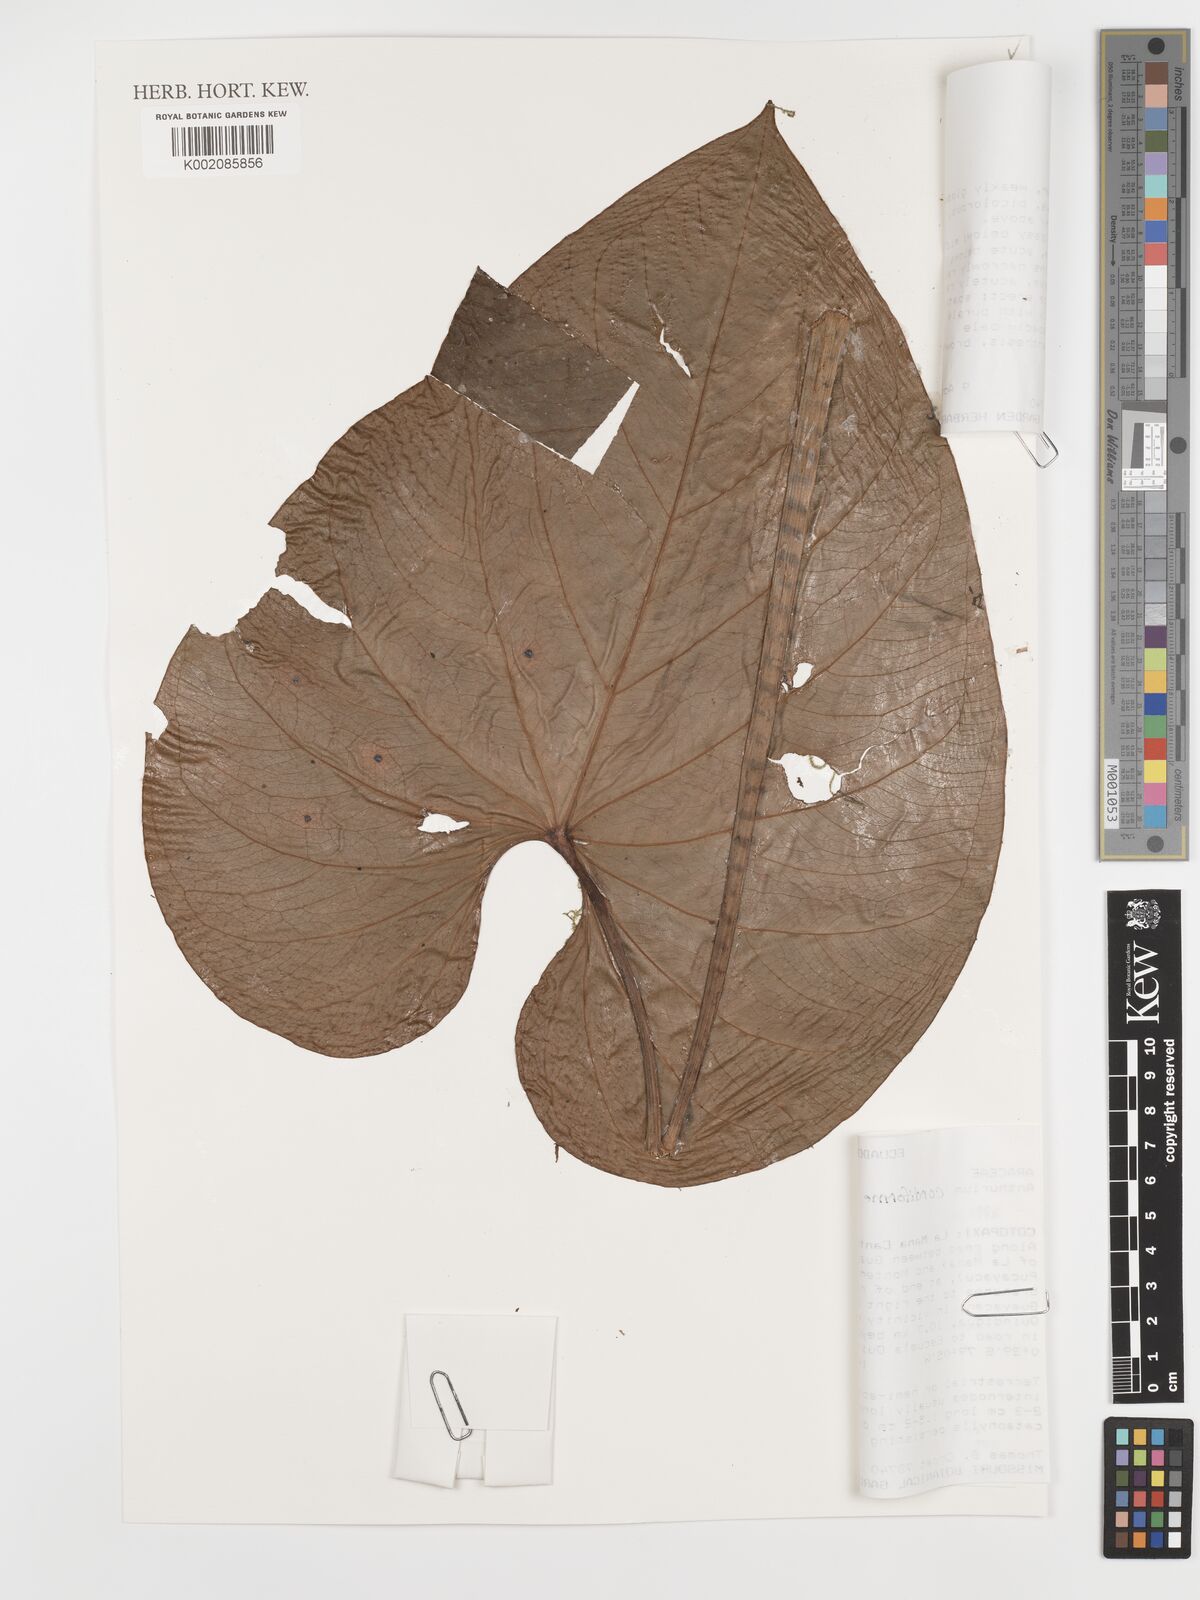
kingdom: Plantae
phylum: Tracheophyta
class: Liliopsida
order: Alismatales
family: Araceae
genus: Anthurium
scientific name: Anthurium cordiforme
